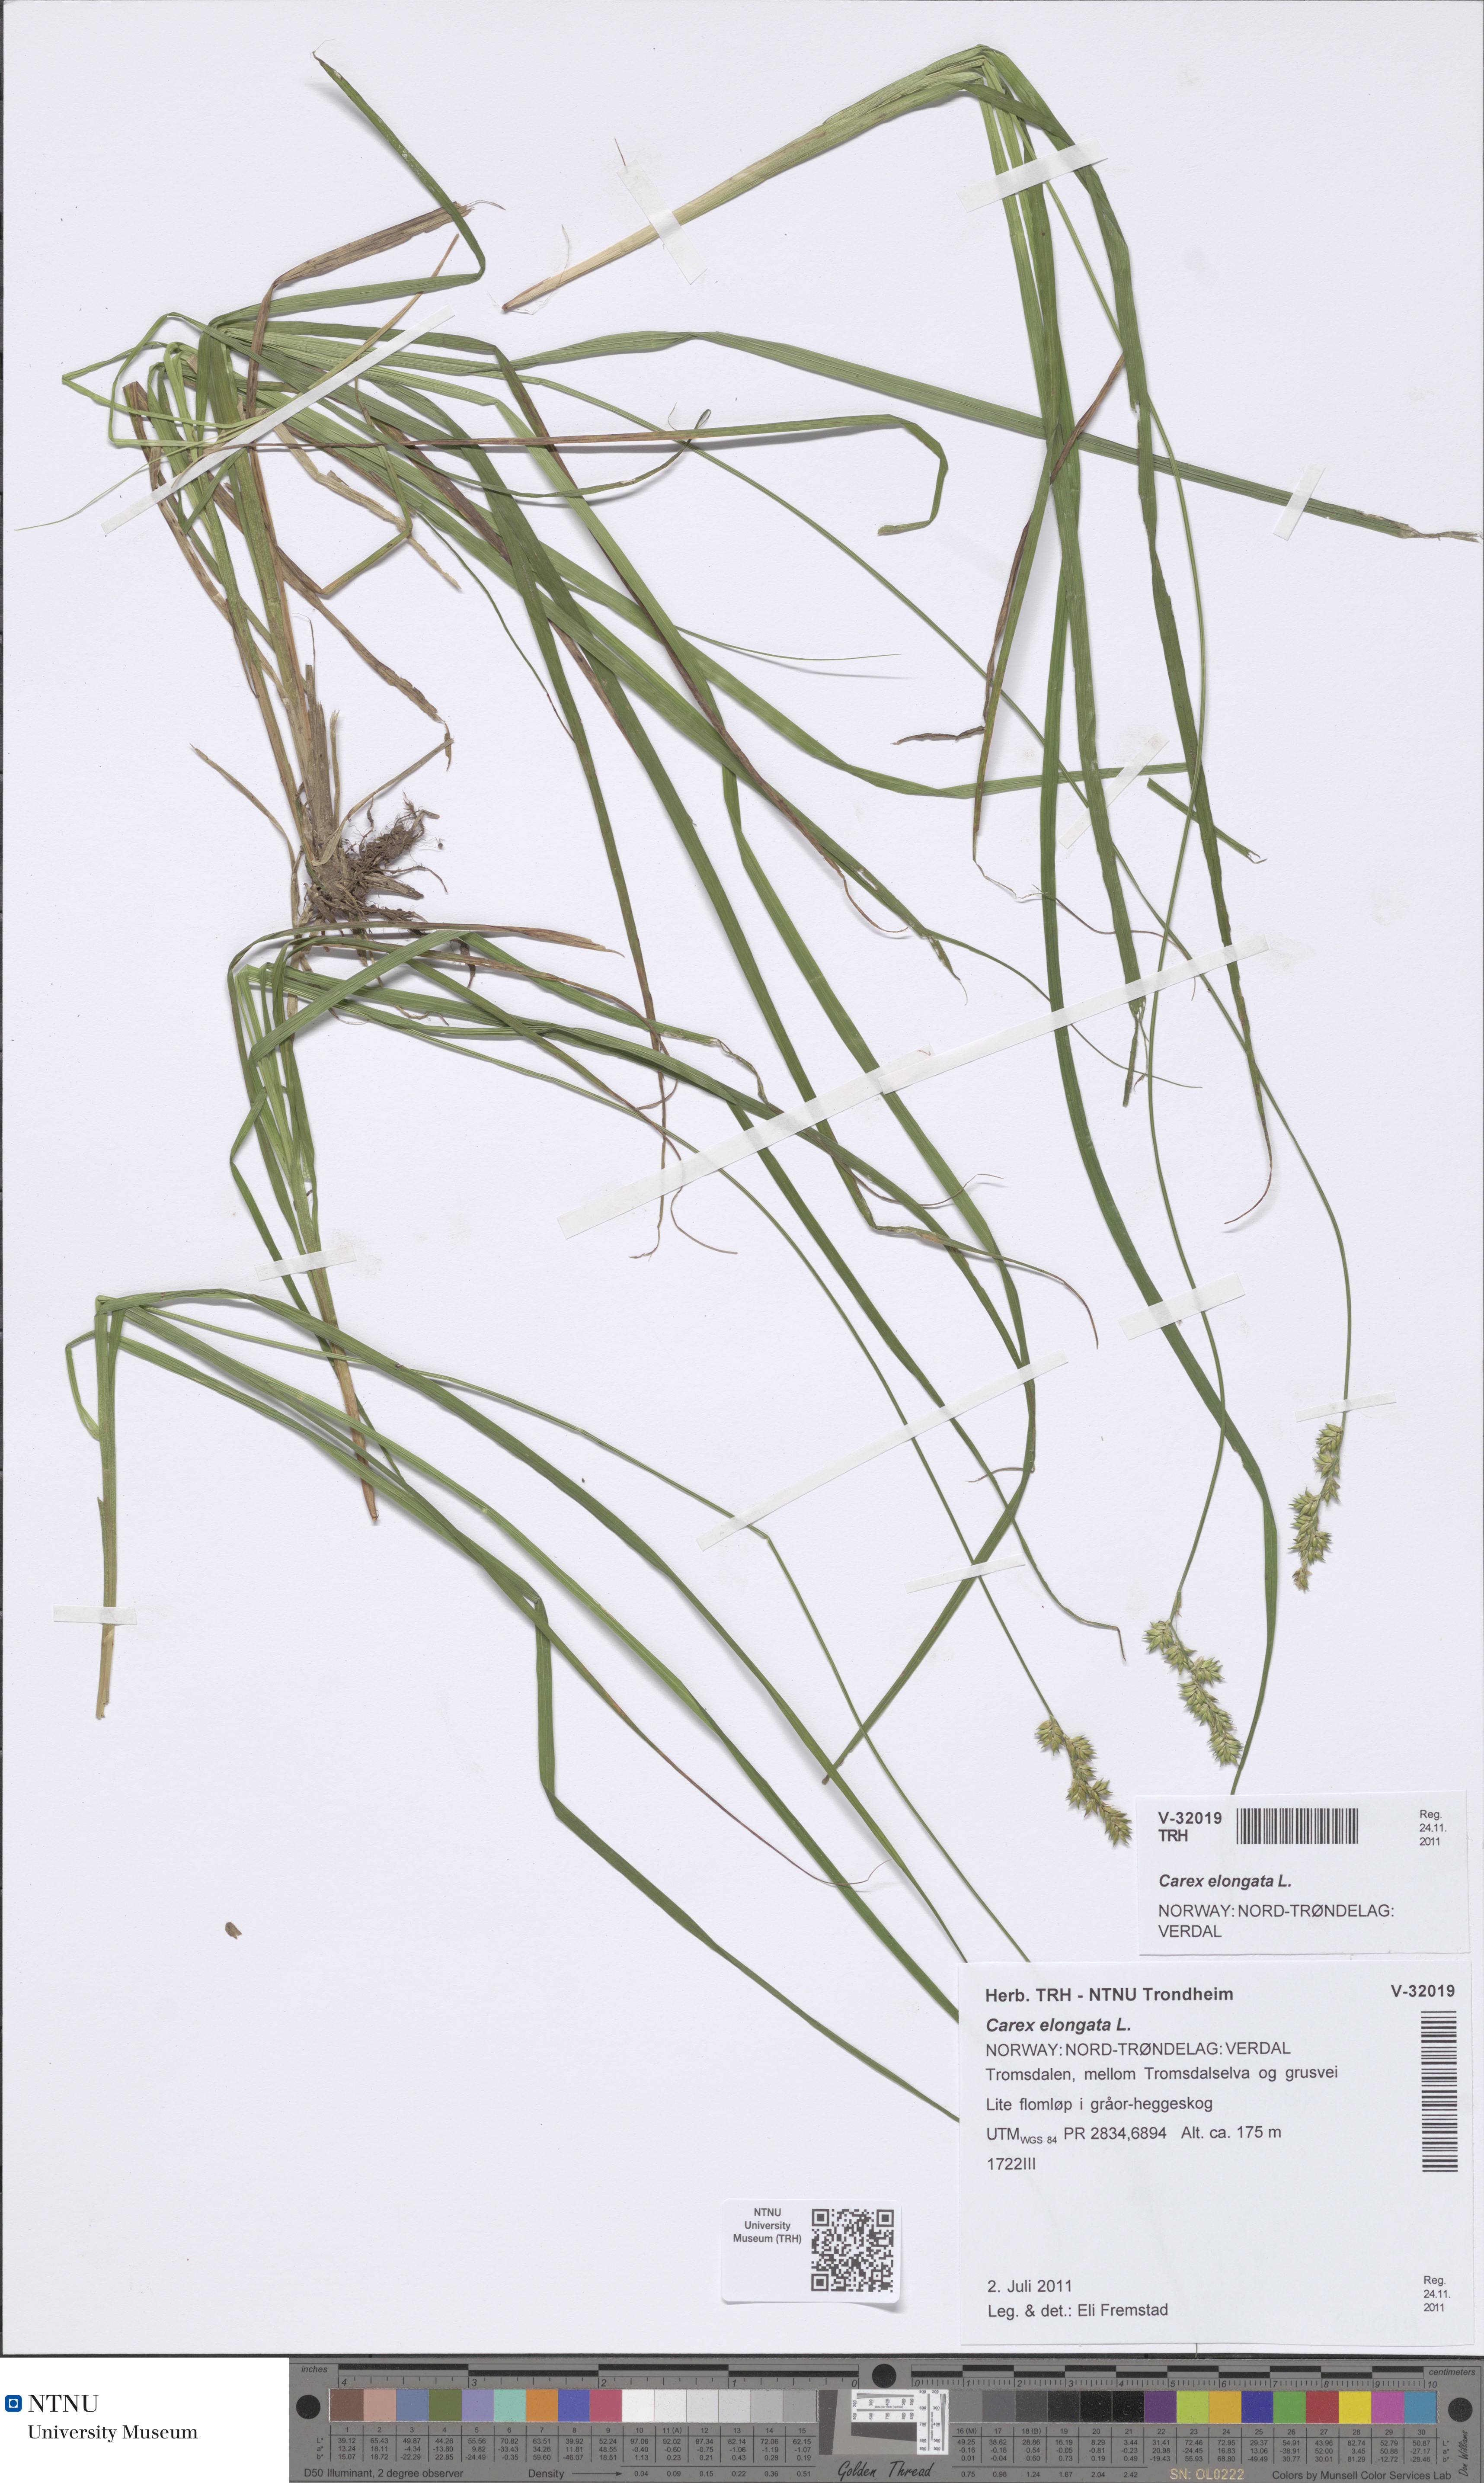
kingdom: Plantae
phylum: Tracheophyta
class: Liliopsida
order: Poales
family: Cyperaceae
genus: Carex
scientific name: Carex elongata
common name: Elongated sedge
